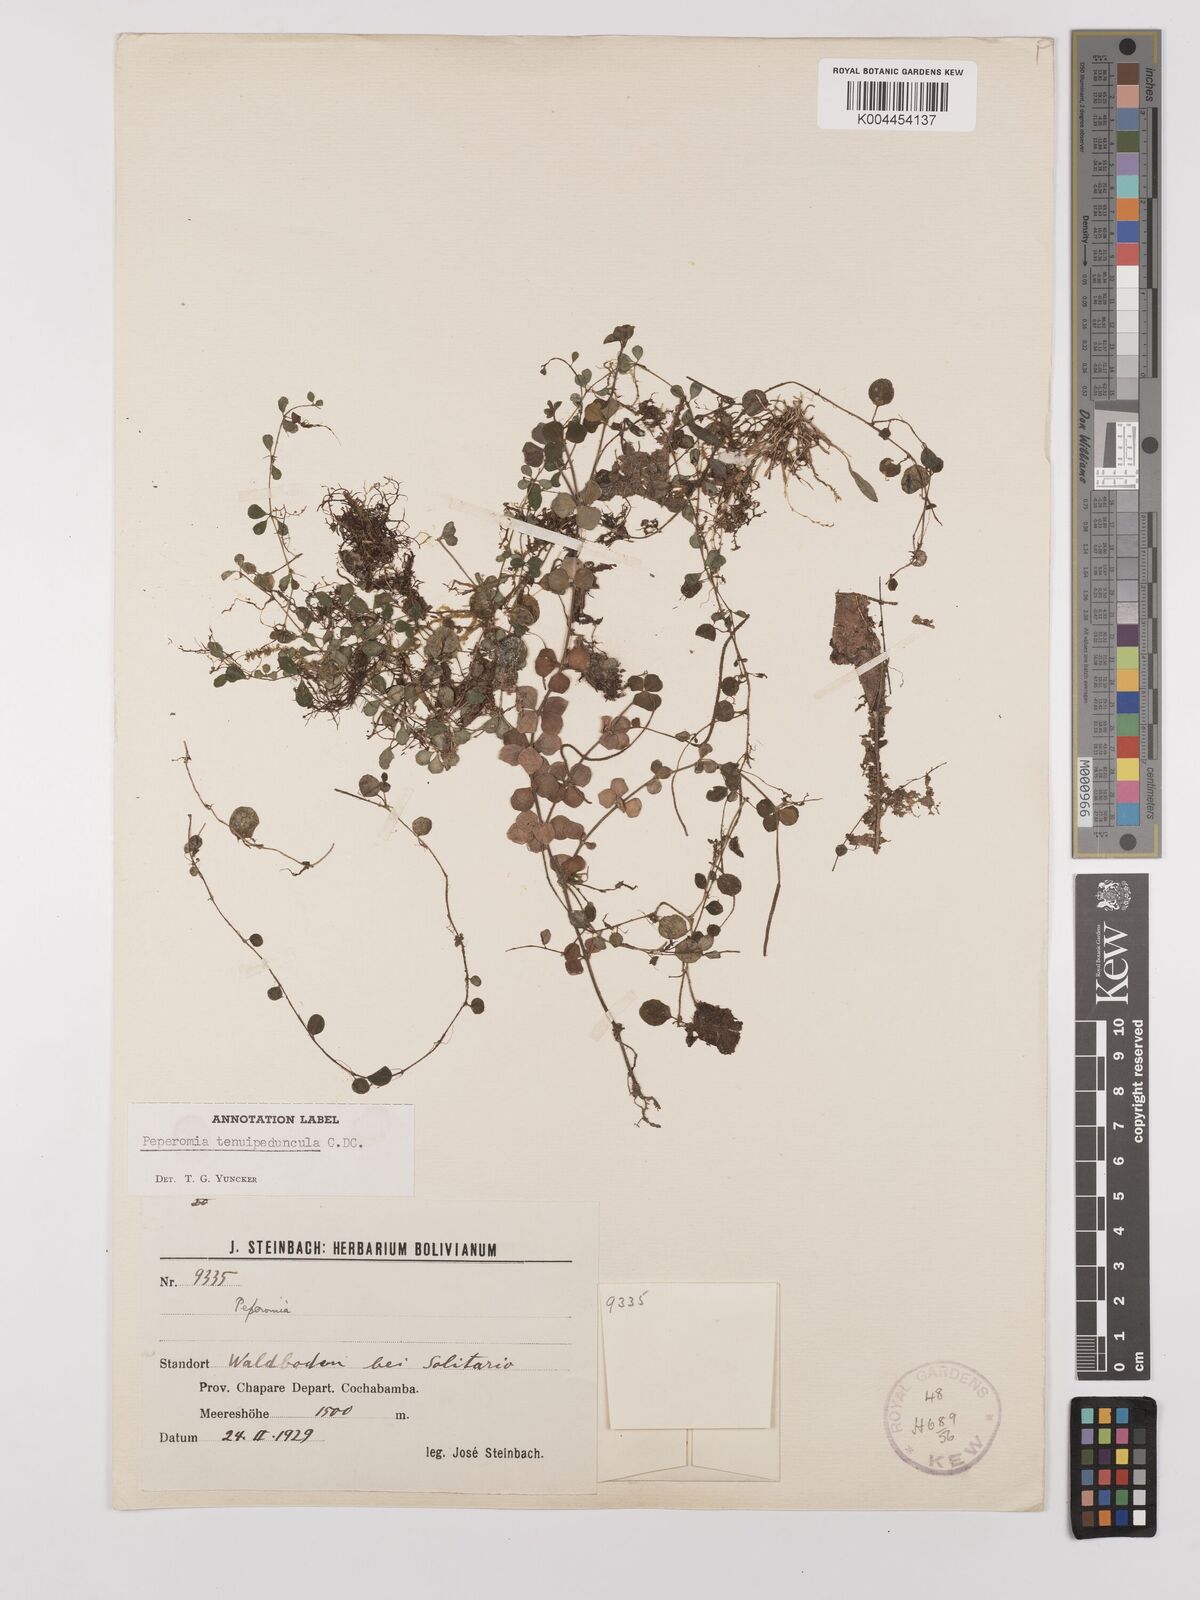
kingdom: Plantae
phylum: Tracheophyta
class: Magnoliopsida
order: Piperales
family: Piperaceae
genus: Peperomia
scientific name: Peperomia tenuipeduncula
